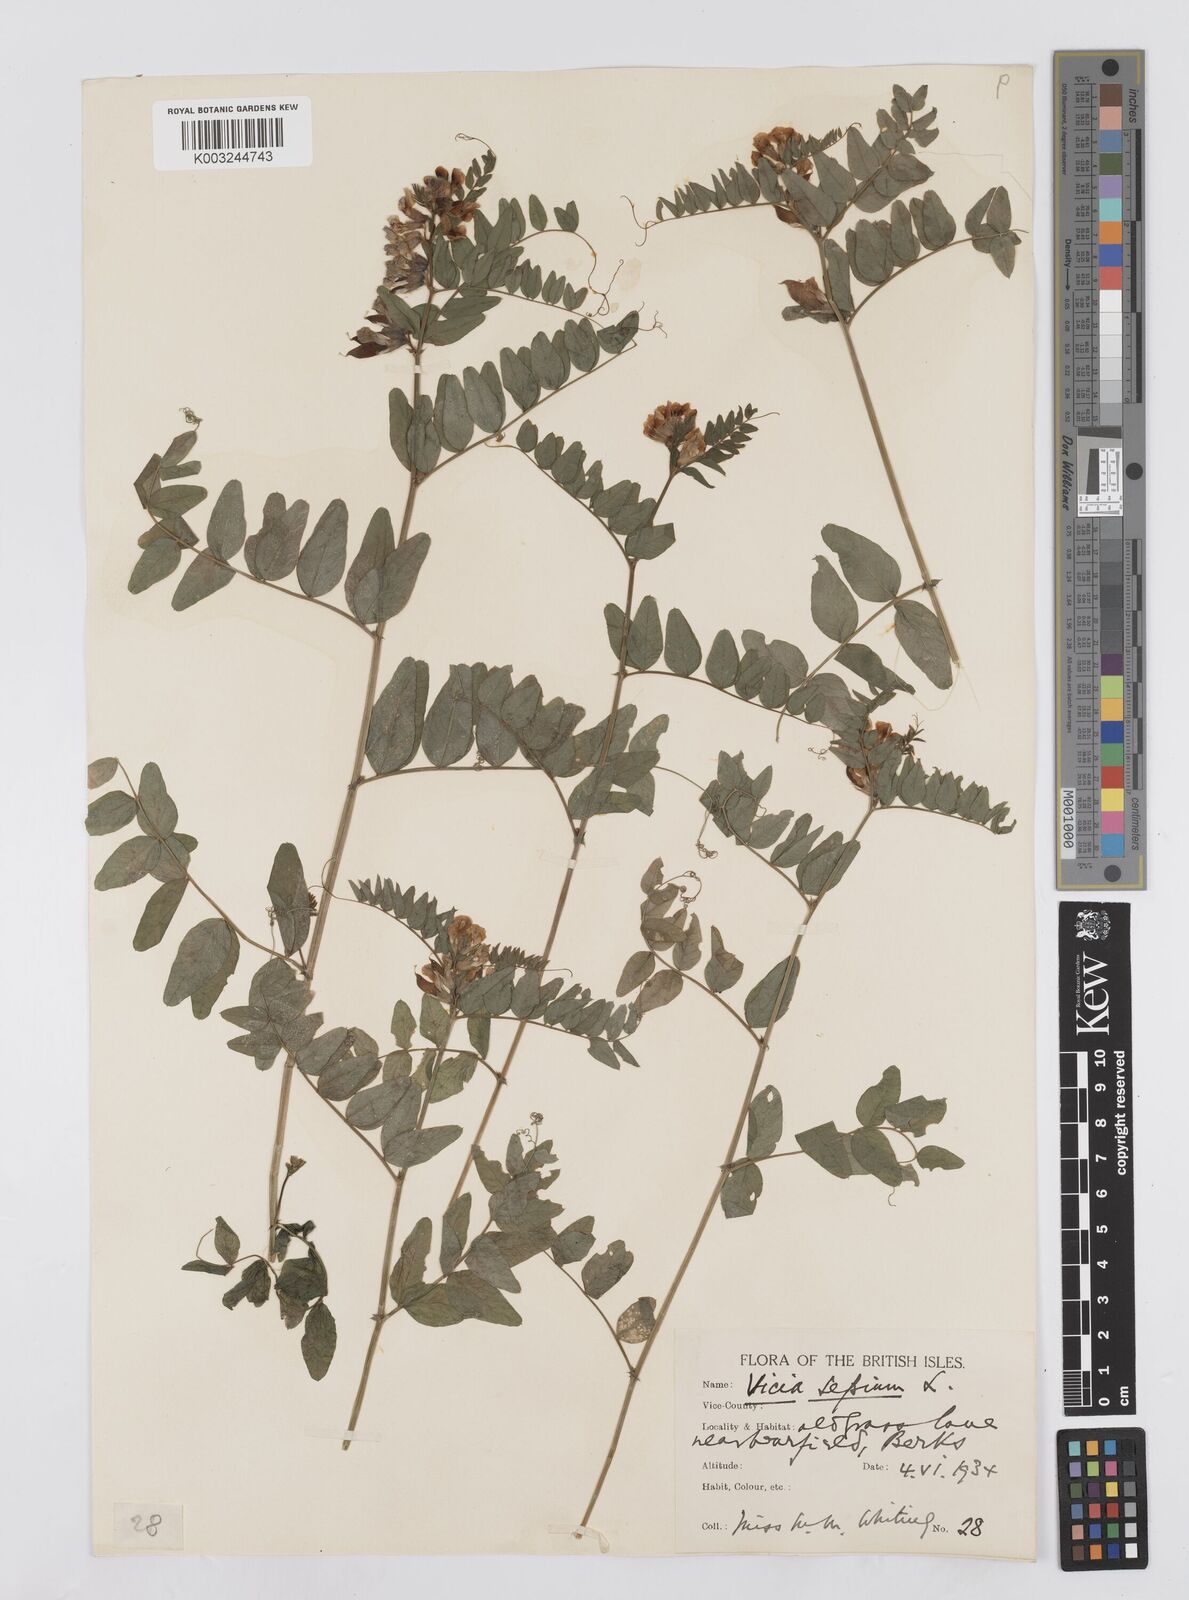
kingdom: Plantae
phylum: Tracheophyta
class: Magnoliopsida
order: Fabales
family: Fabaceae
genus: Vicia
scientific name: Vicia sepium
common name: Bush vetch
